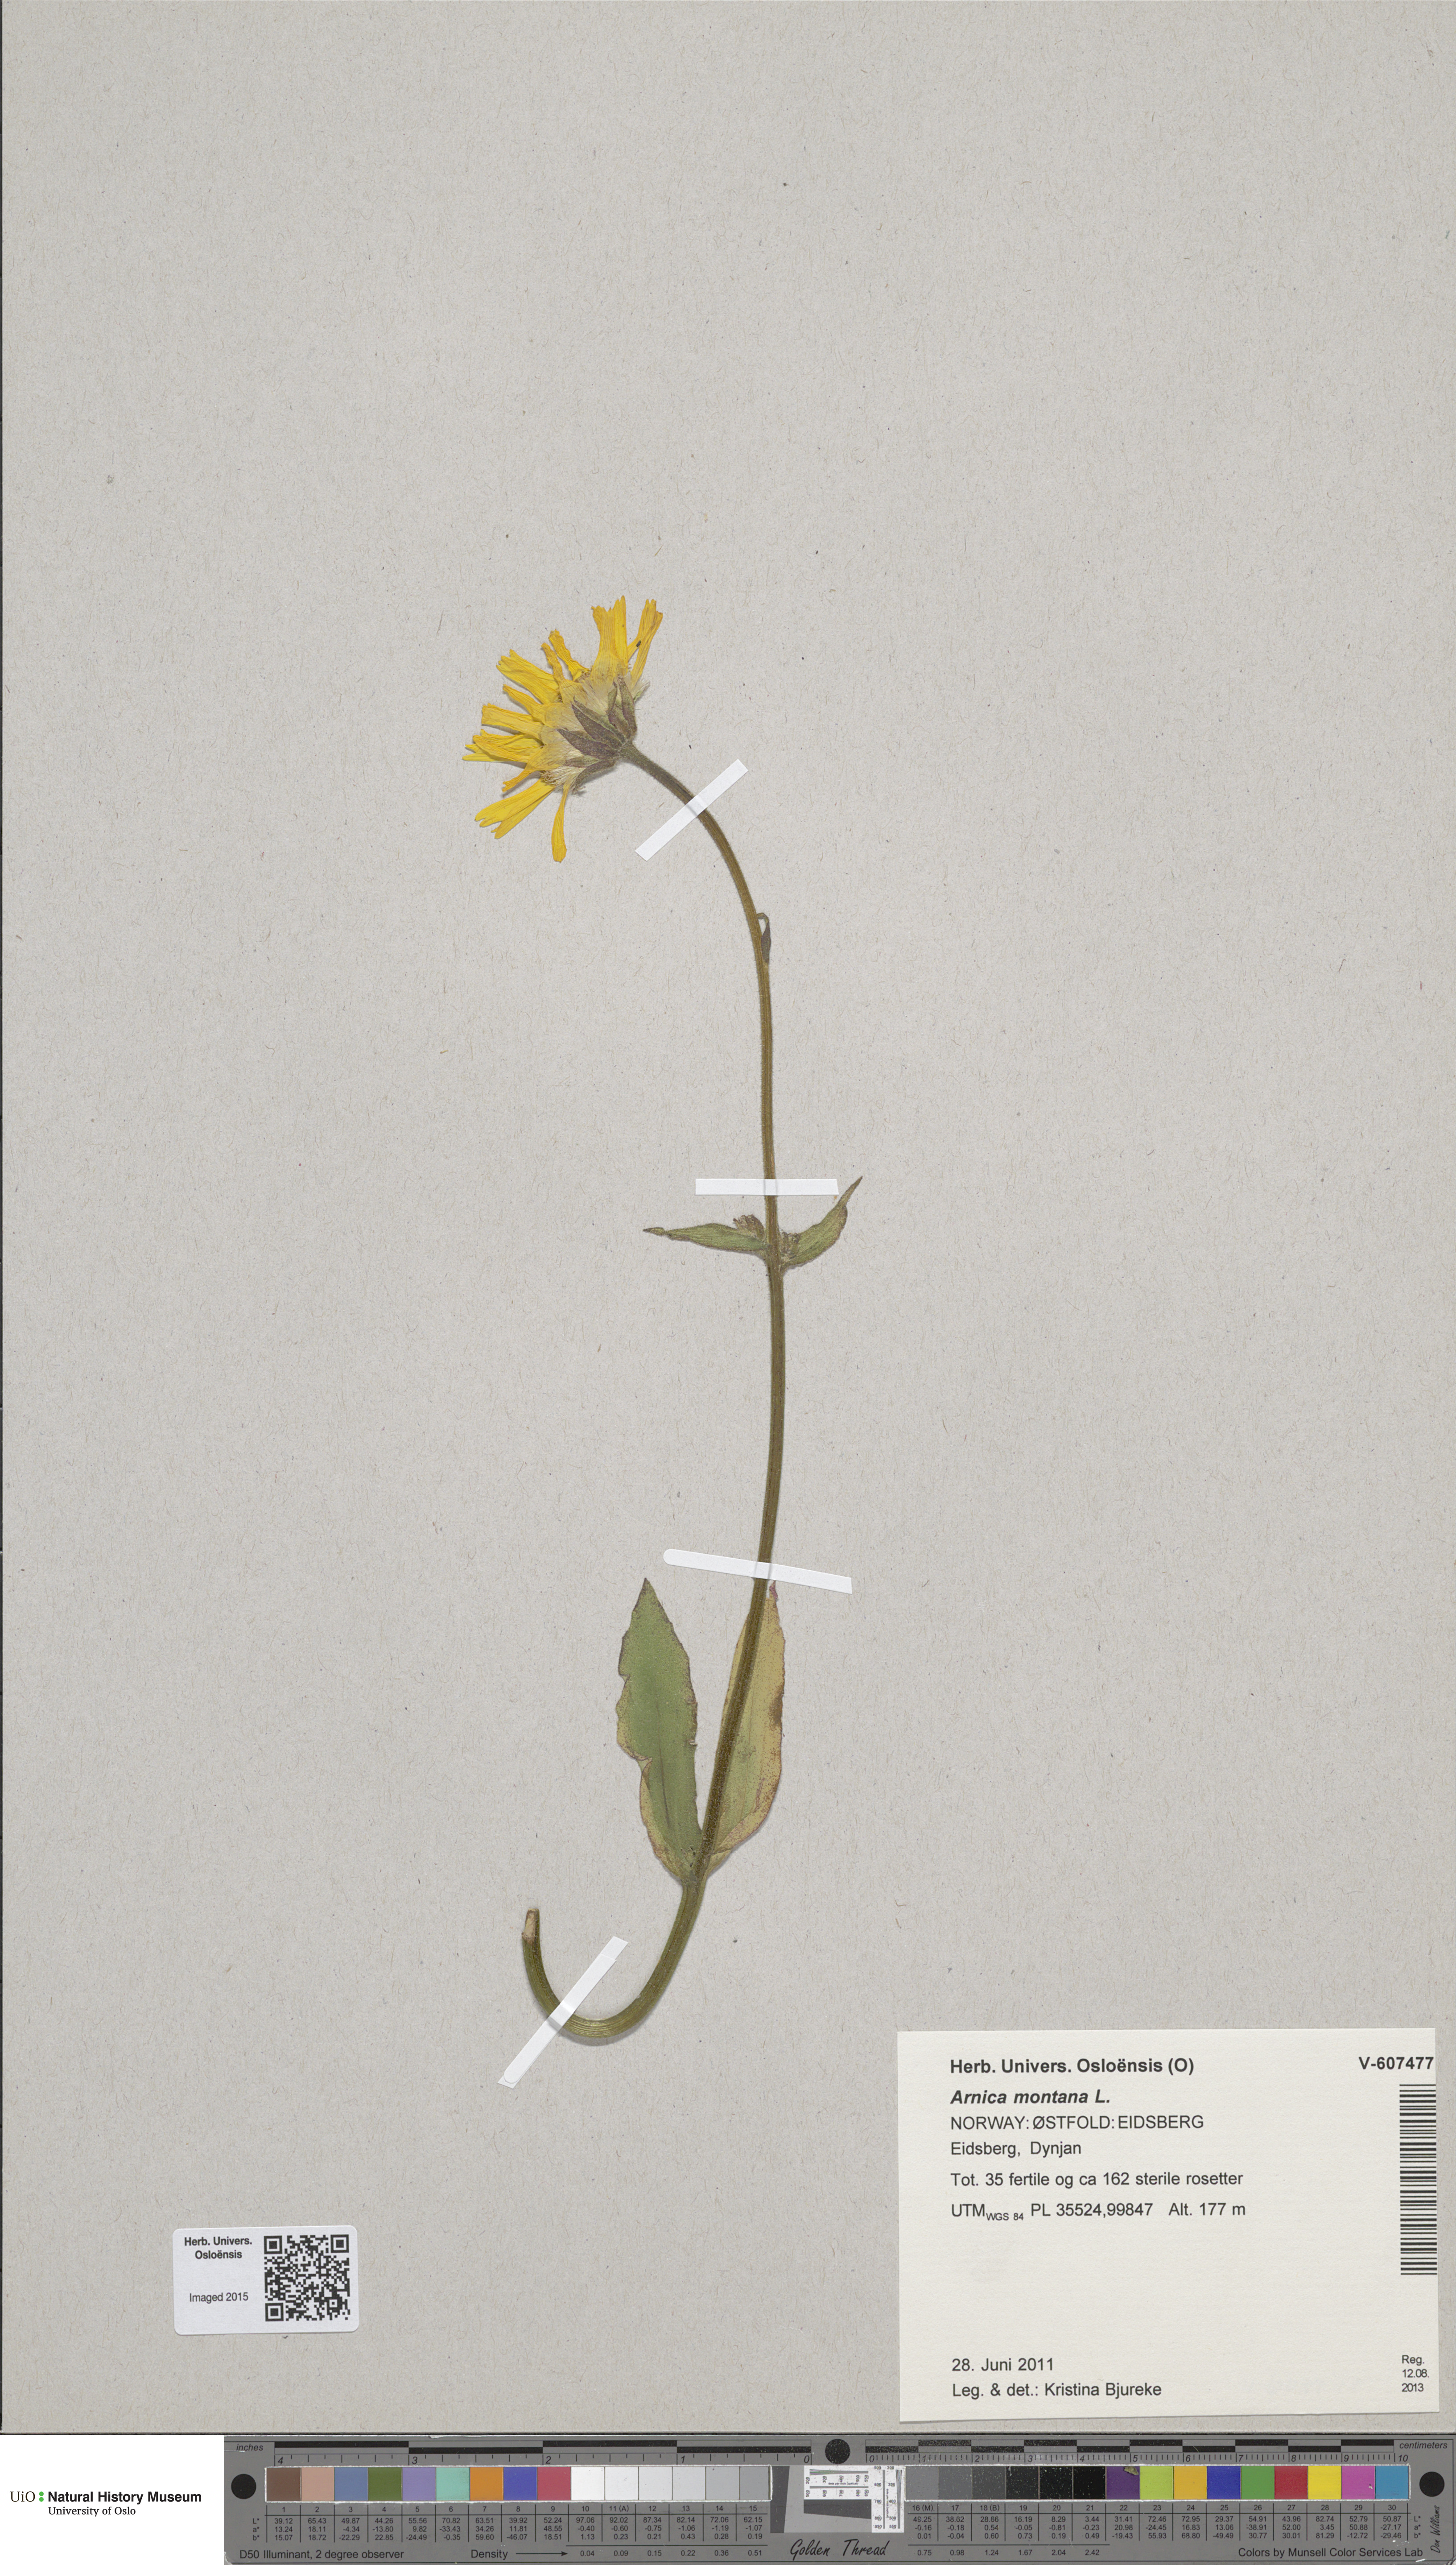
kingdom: Plantae
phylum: Tracheophyta
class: Magnoliopsida
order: Asterales
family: Asteraceae
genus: Arnica
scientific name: Arnica montana
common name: Leopard's bane
